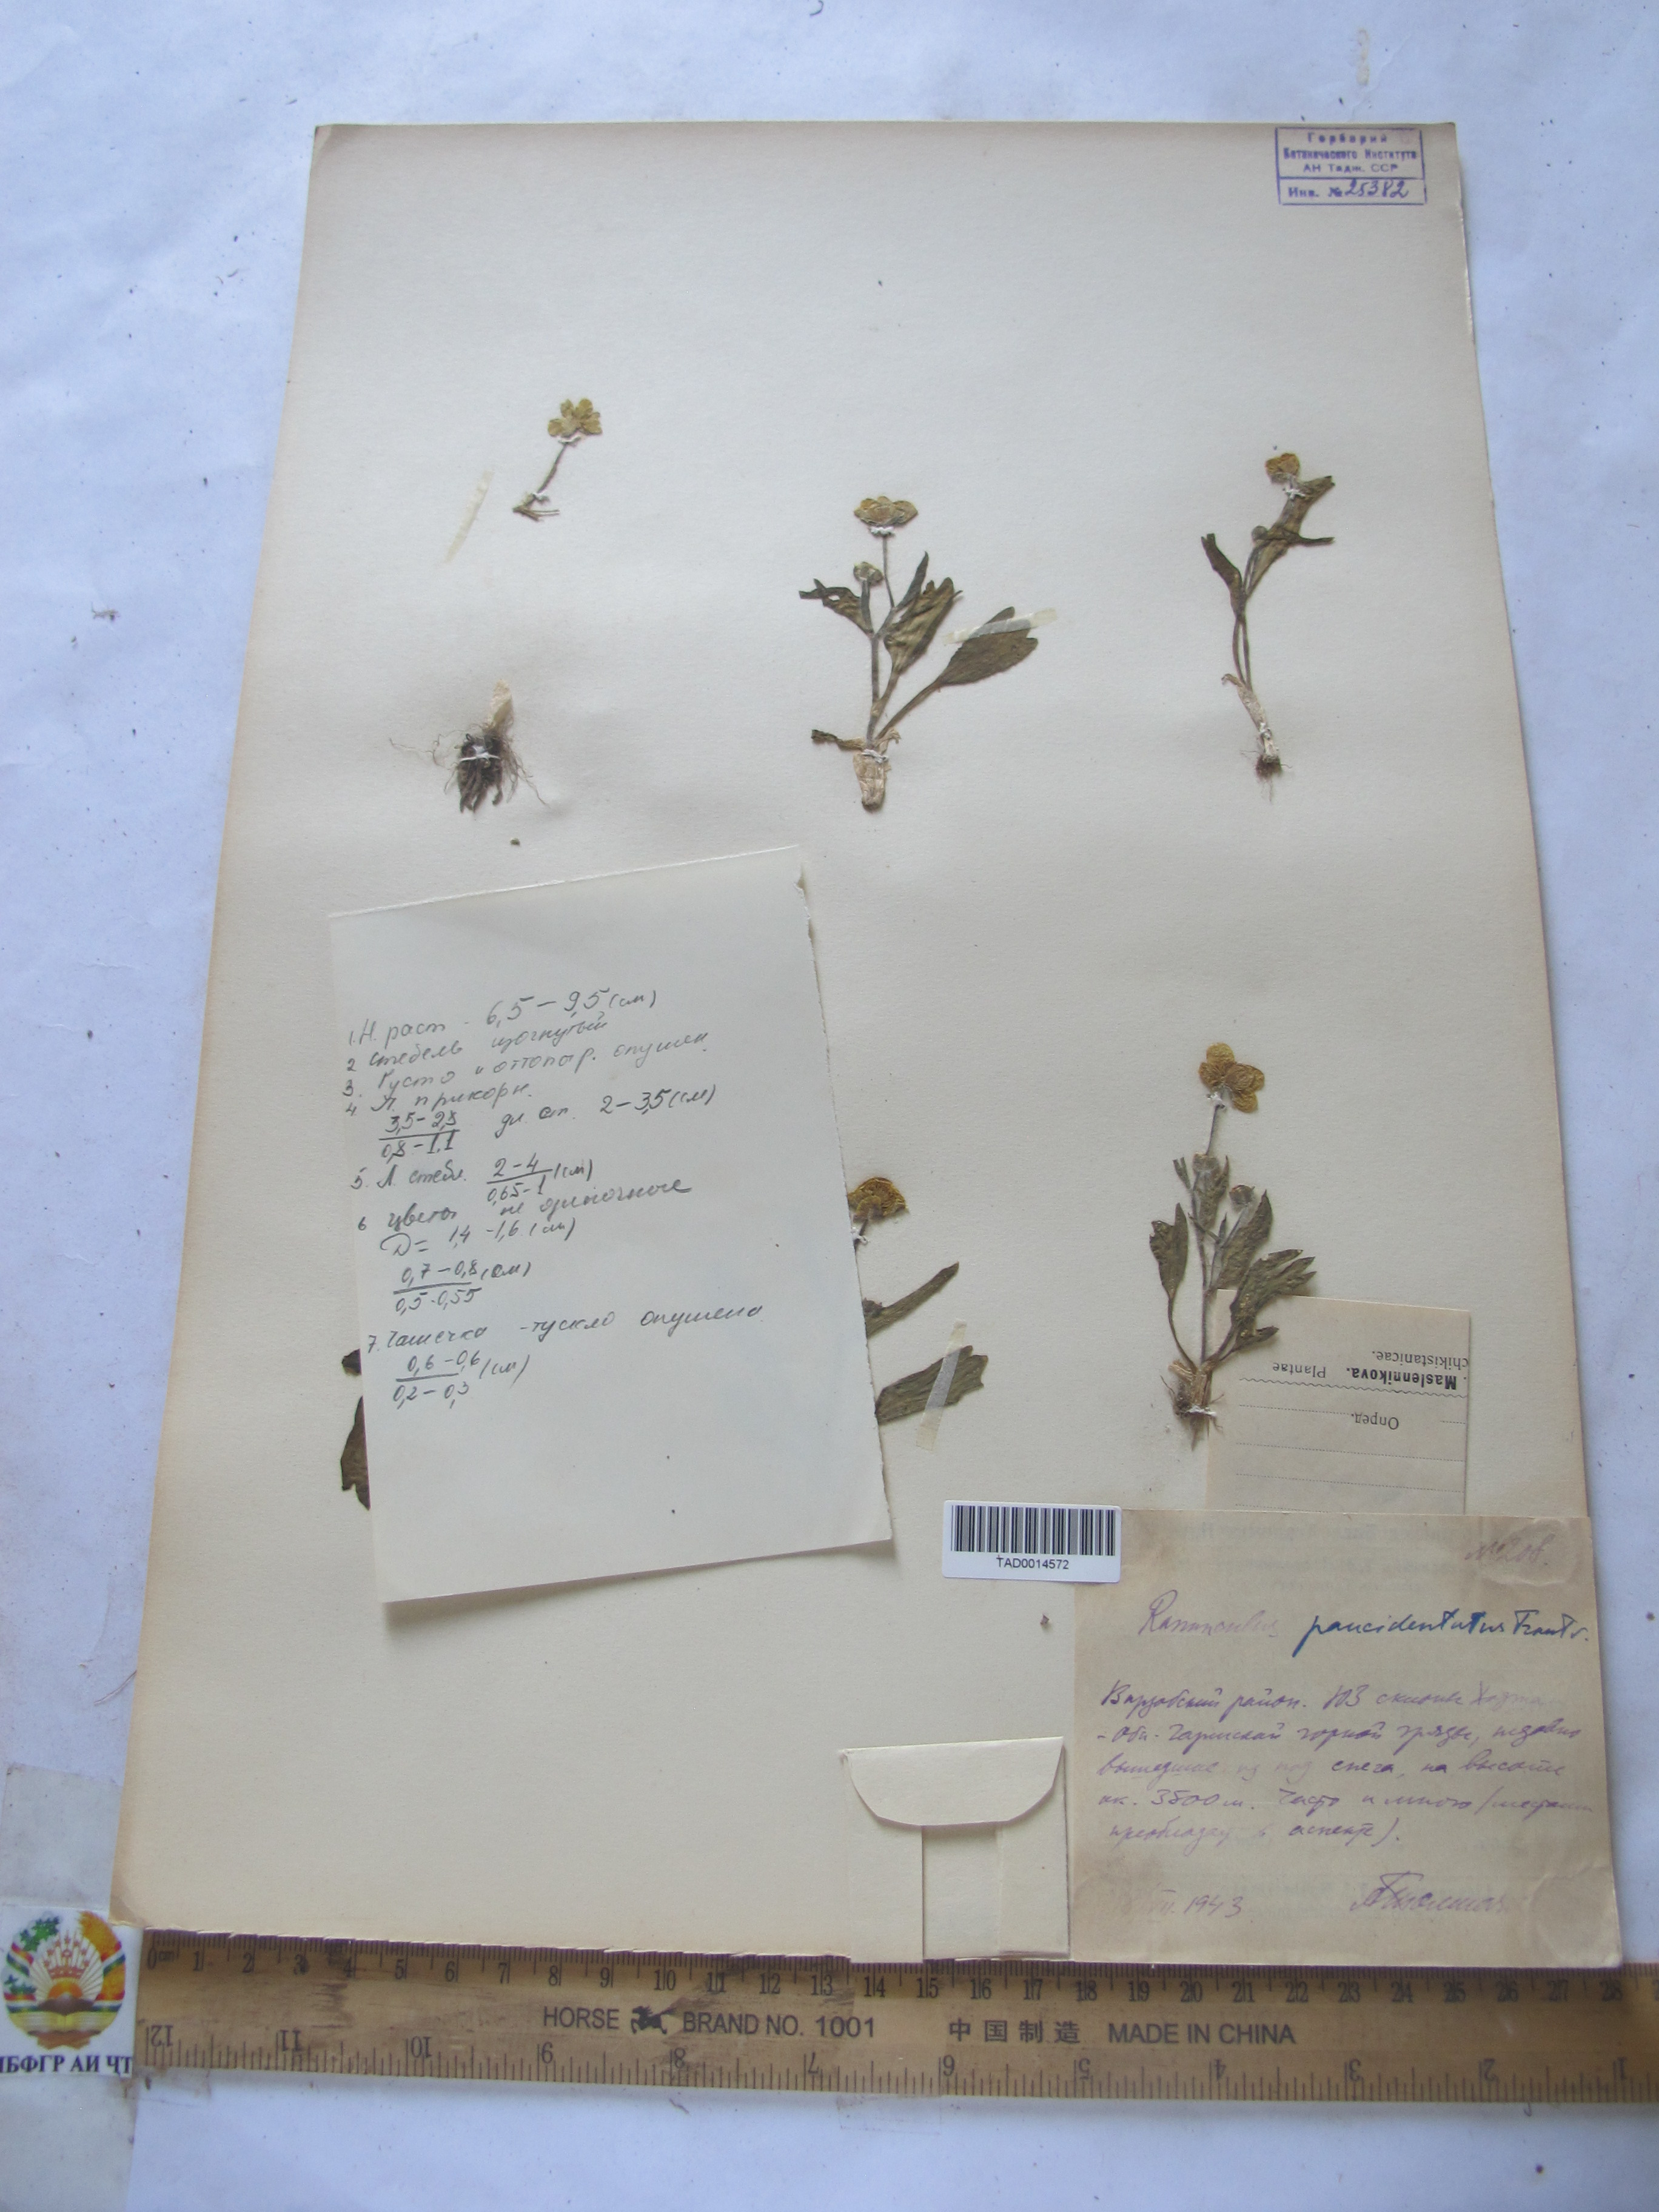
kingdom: Plantae
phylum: Tracheophyta
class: Magnoliopsida
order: Ranunculales
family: Ranunculaceae
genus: Ranunculus
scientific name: Ranunculus paucidentatus
